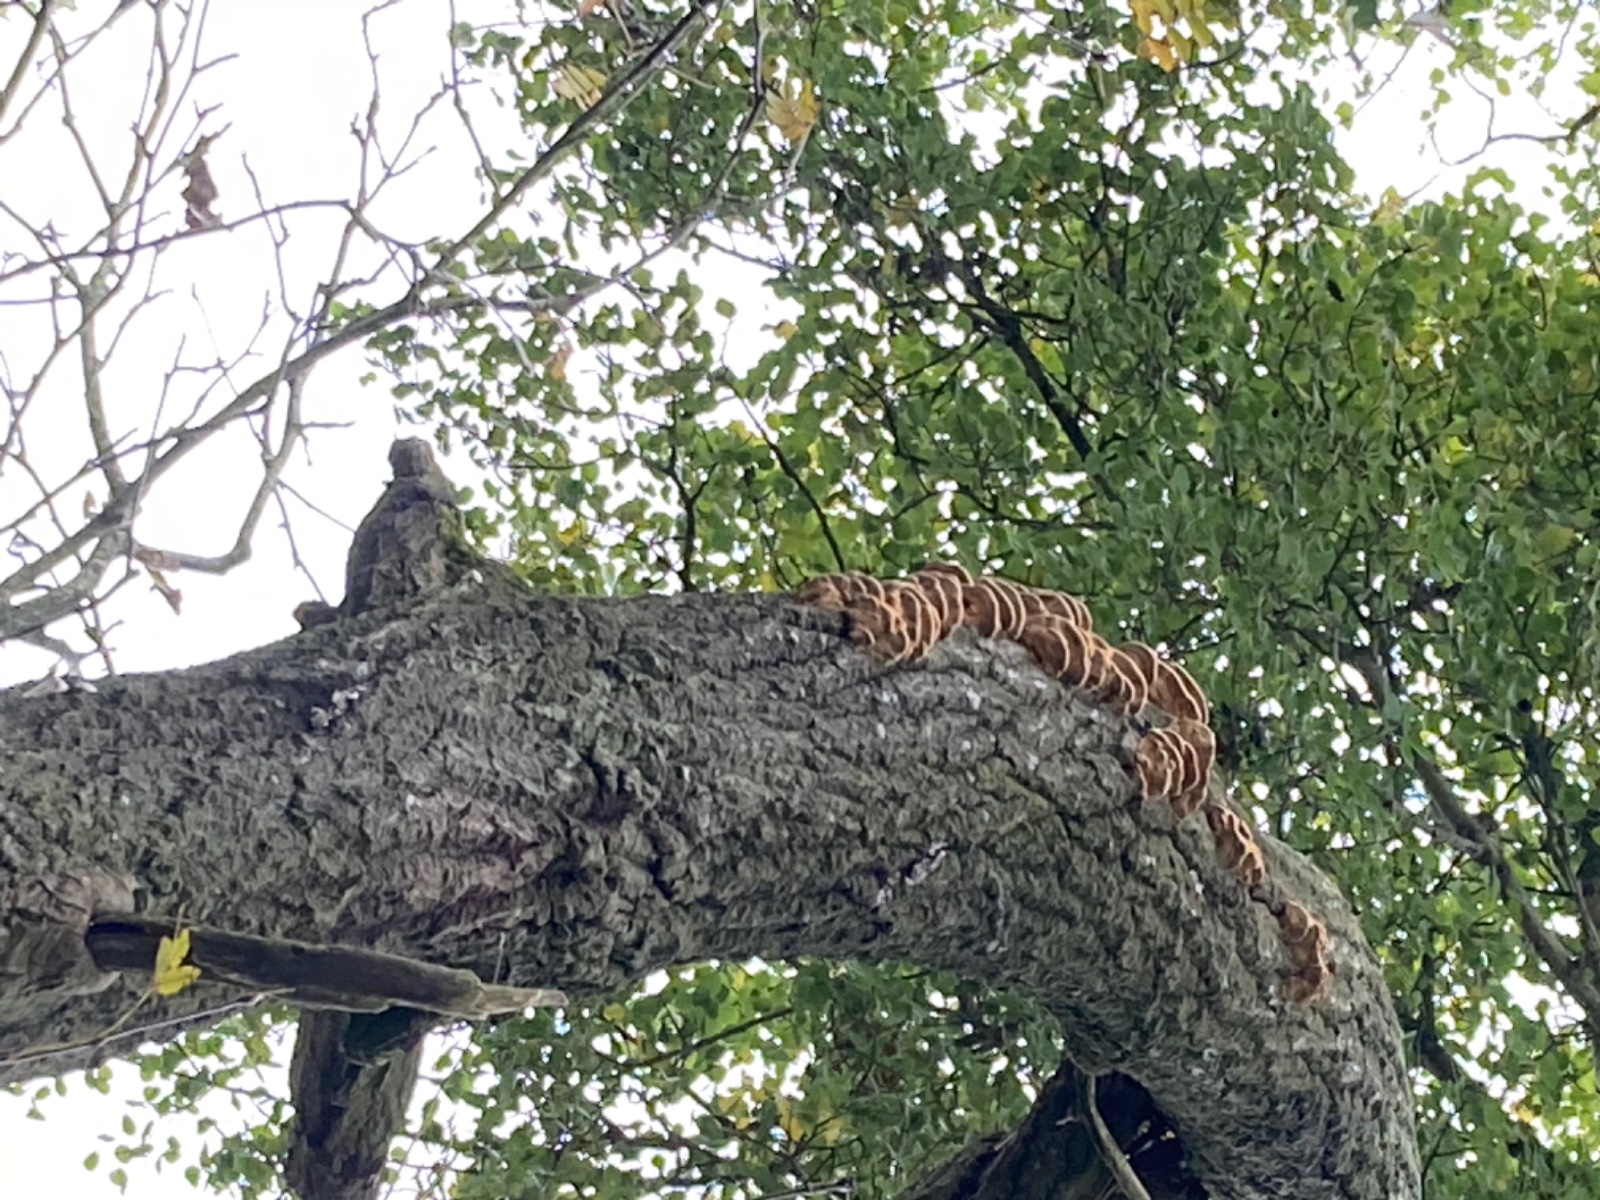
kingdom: Fungi
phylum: Basidiomycota
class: Agaricomycetes
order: Hymenochaetales
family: Hymenochaetaceae
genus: Inocutis
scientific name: Inocutis rheades
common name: ræve-spejlporesvamp
